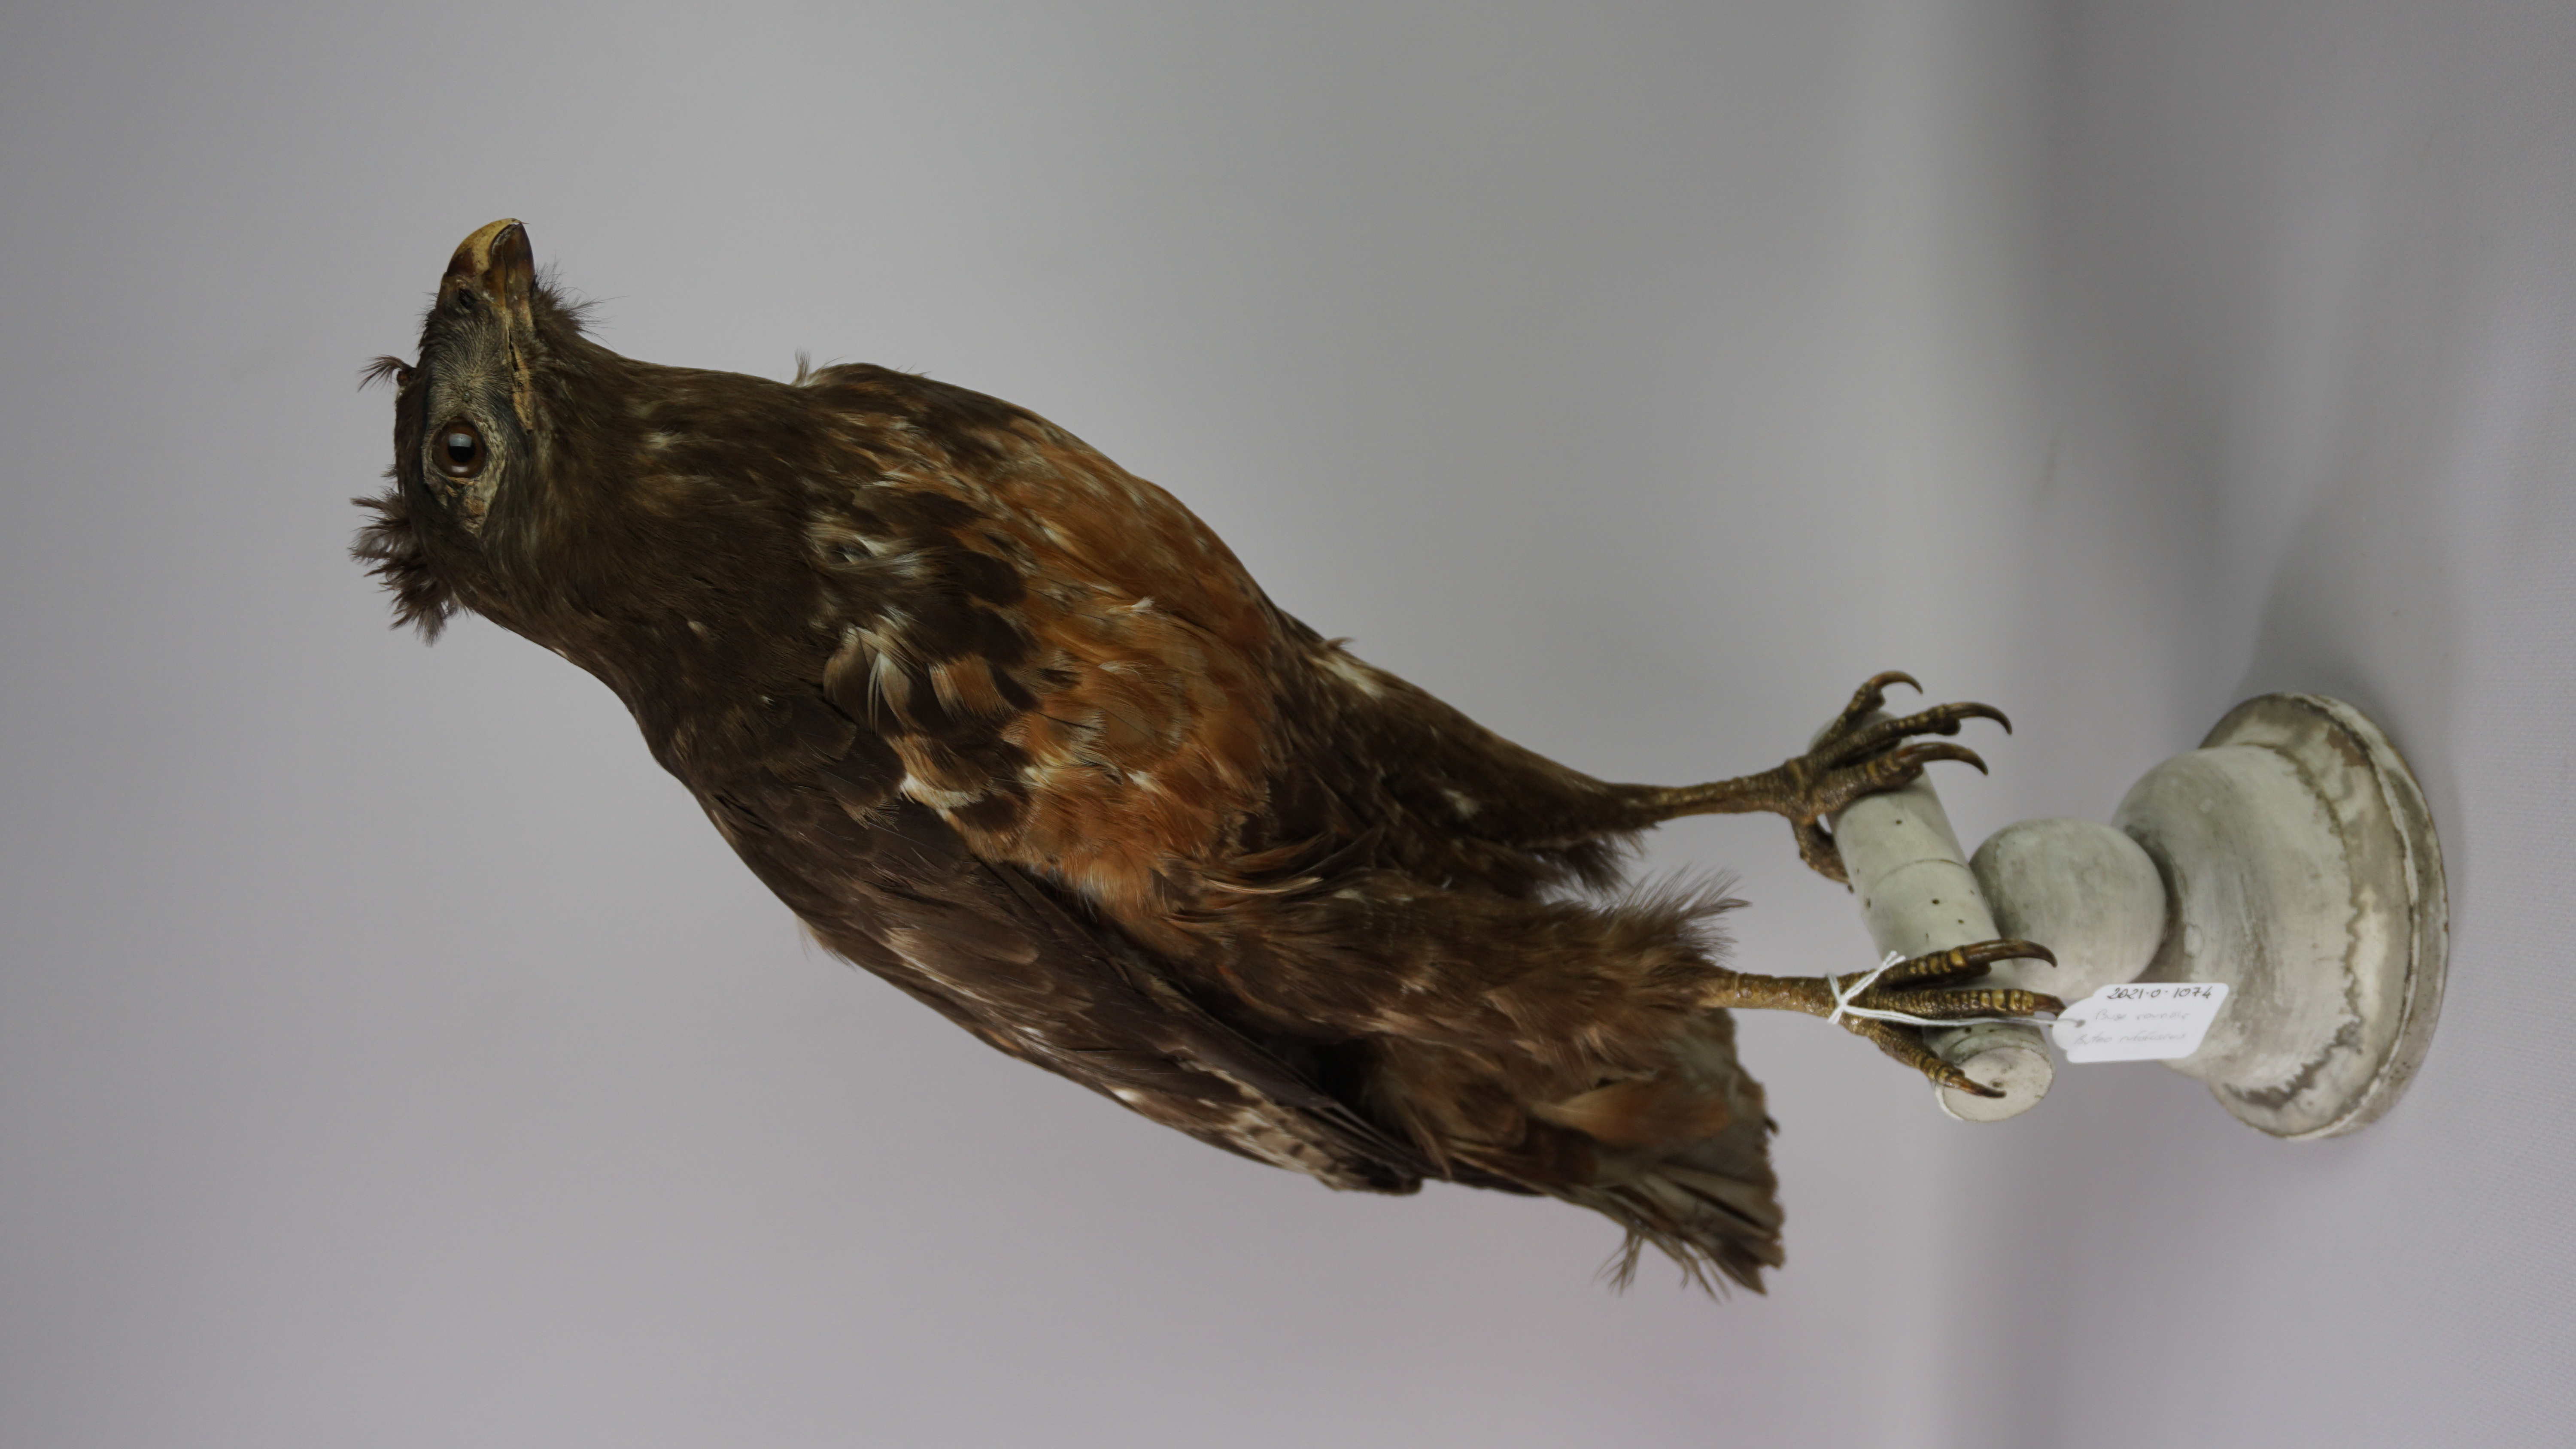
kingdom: Animalia
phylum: Chordata
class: Aves
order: Accipitriformes
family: Accipitridae
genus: Buteo
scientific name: Buteo rufofuscus
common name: Jackal buzzard
